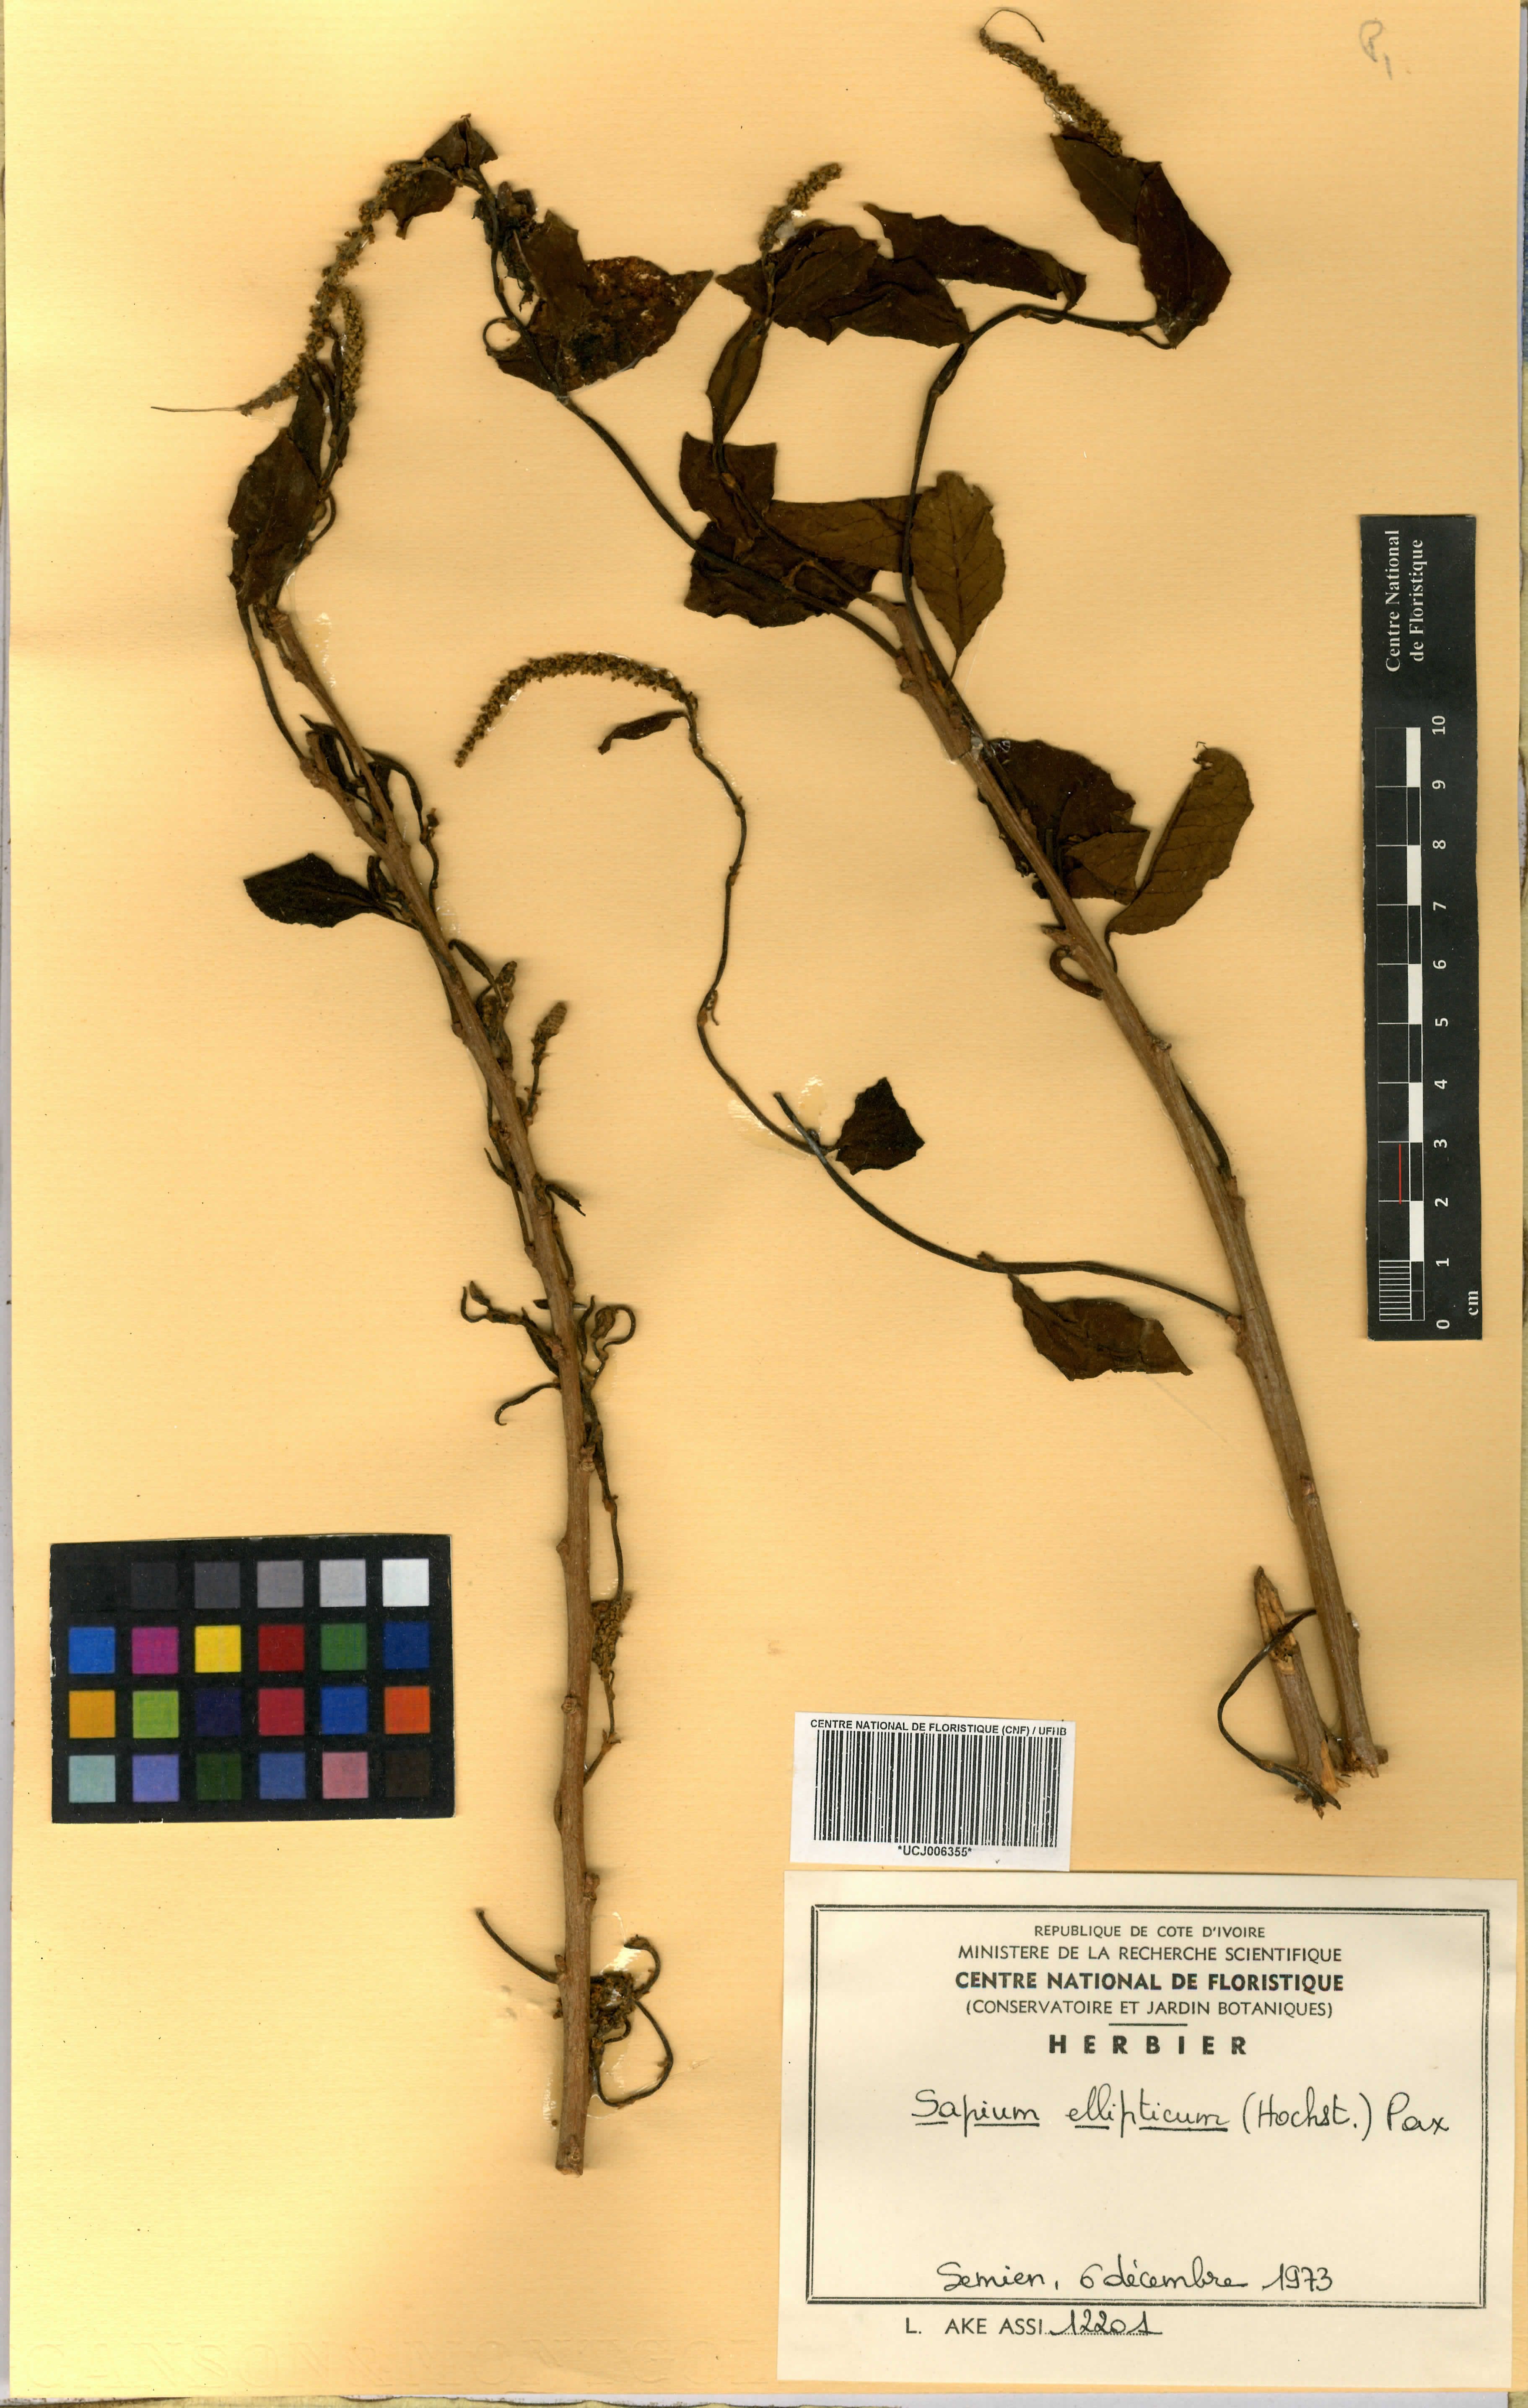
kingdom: Plantae
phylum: Tracheophyta
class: Magnoliopsida
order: Malpighiales
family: Euphorbiaceae
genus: Shirakiopsis
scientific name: Shirakiopsis elliptica
